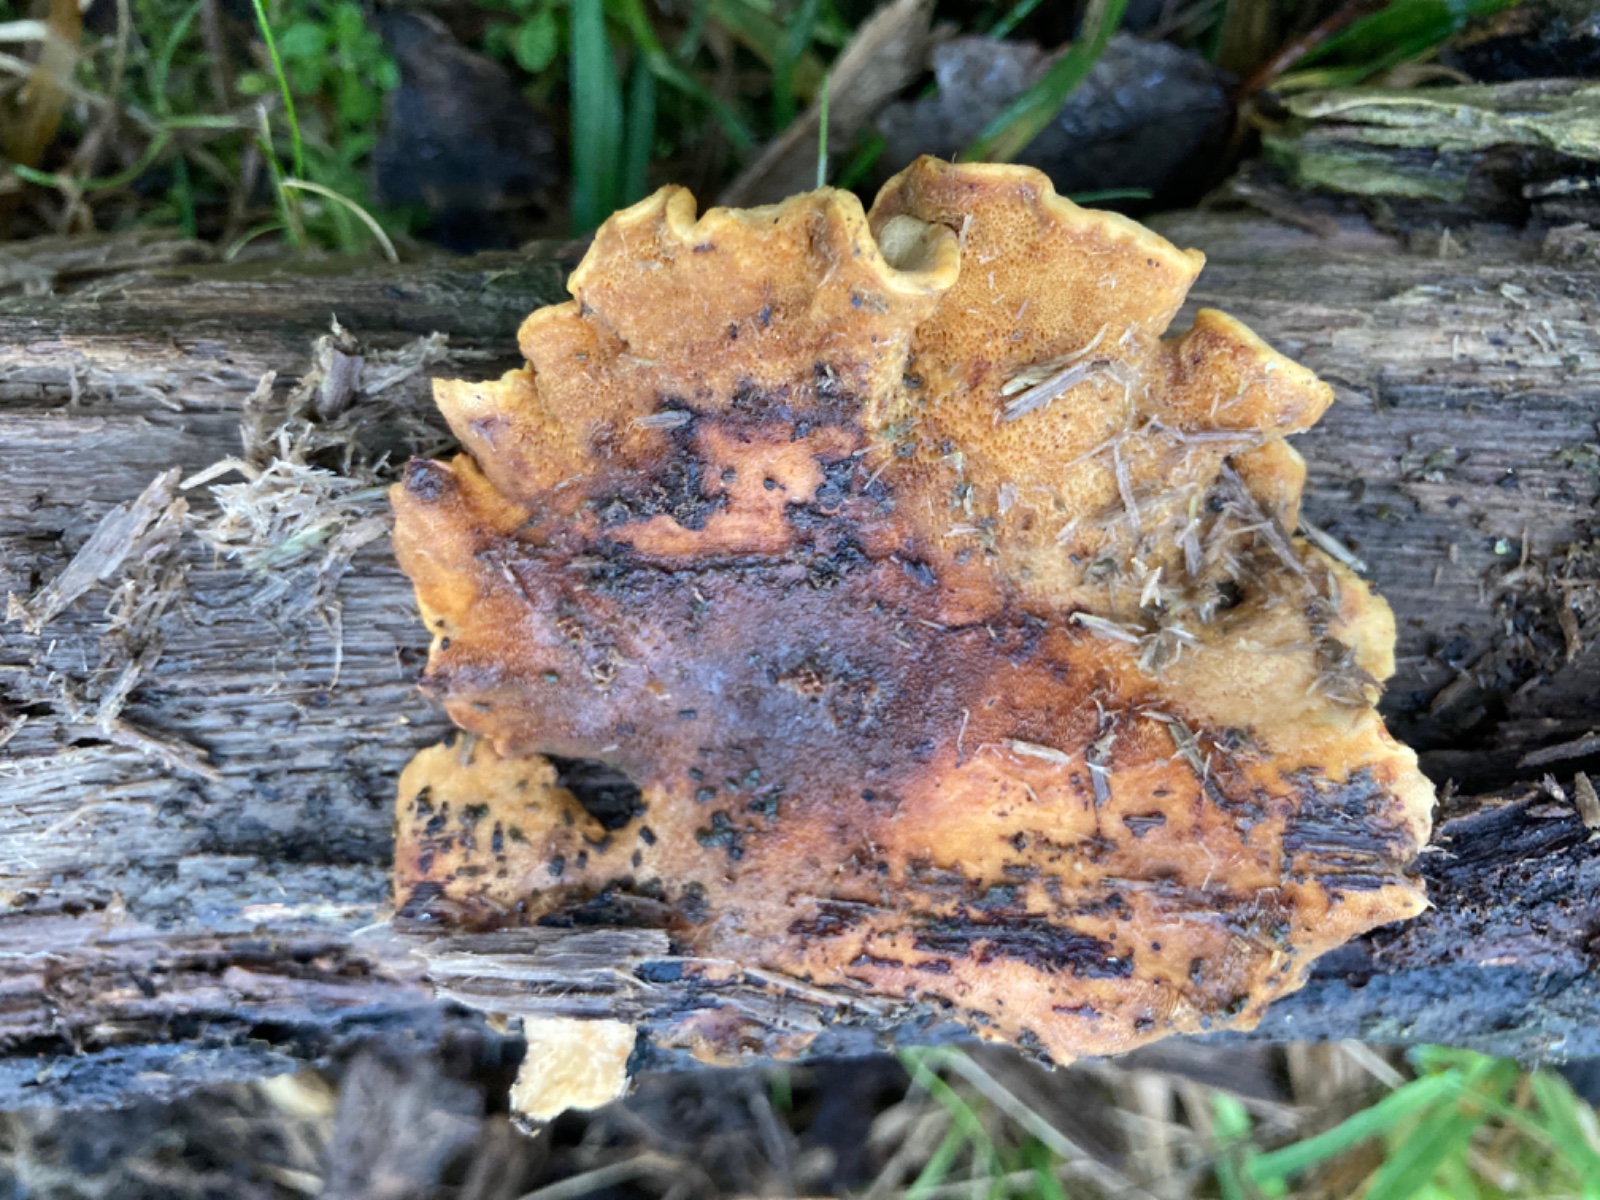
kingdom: Fungi
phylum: Basidiomycota
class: Agaricomycetes
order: Polyporales
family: Polyporaceae
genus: Cerioporus
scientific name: Cerioporus varius
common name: foranderlig stilkporesvamp
